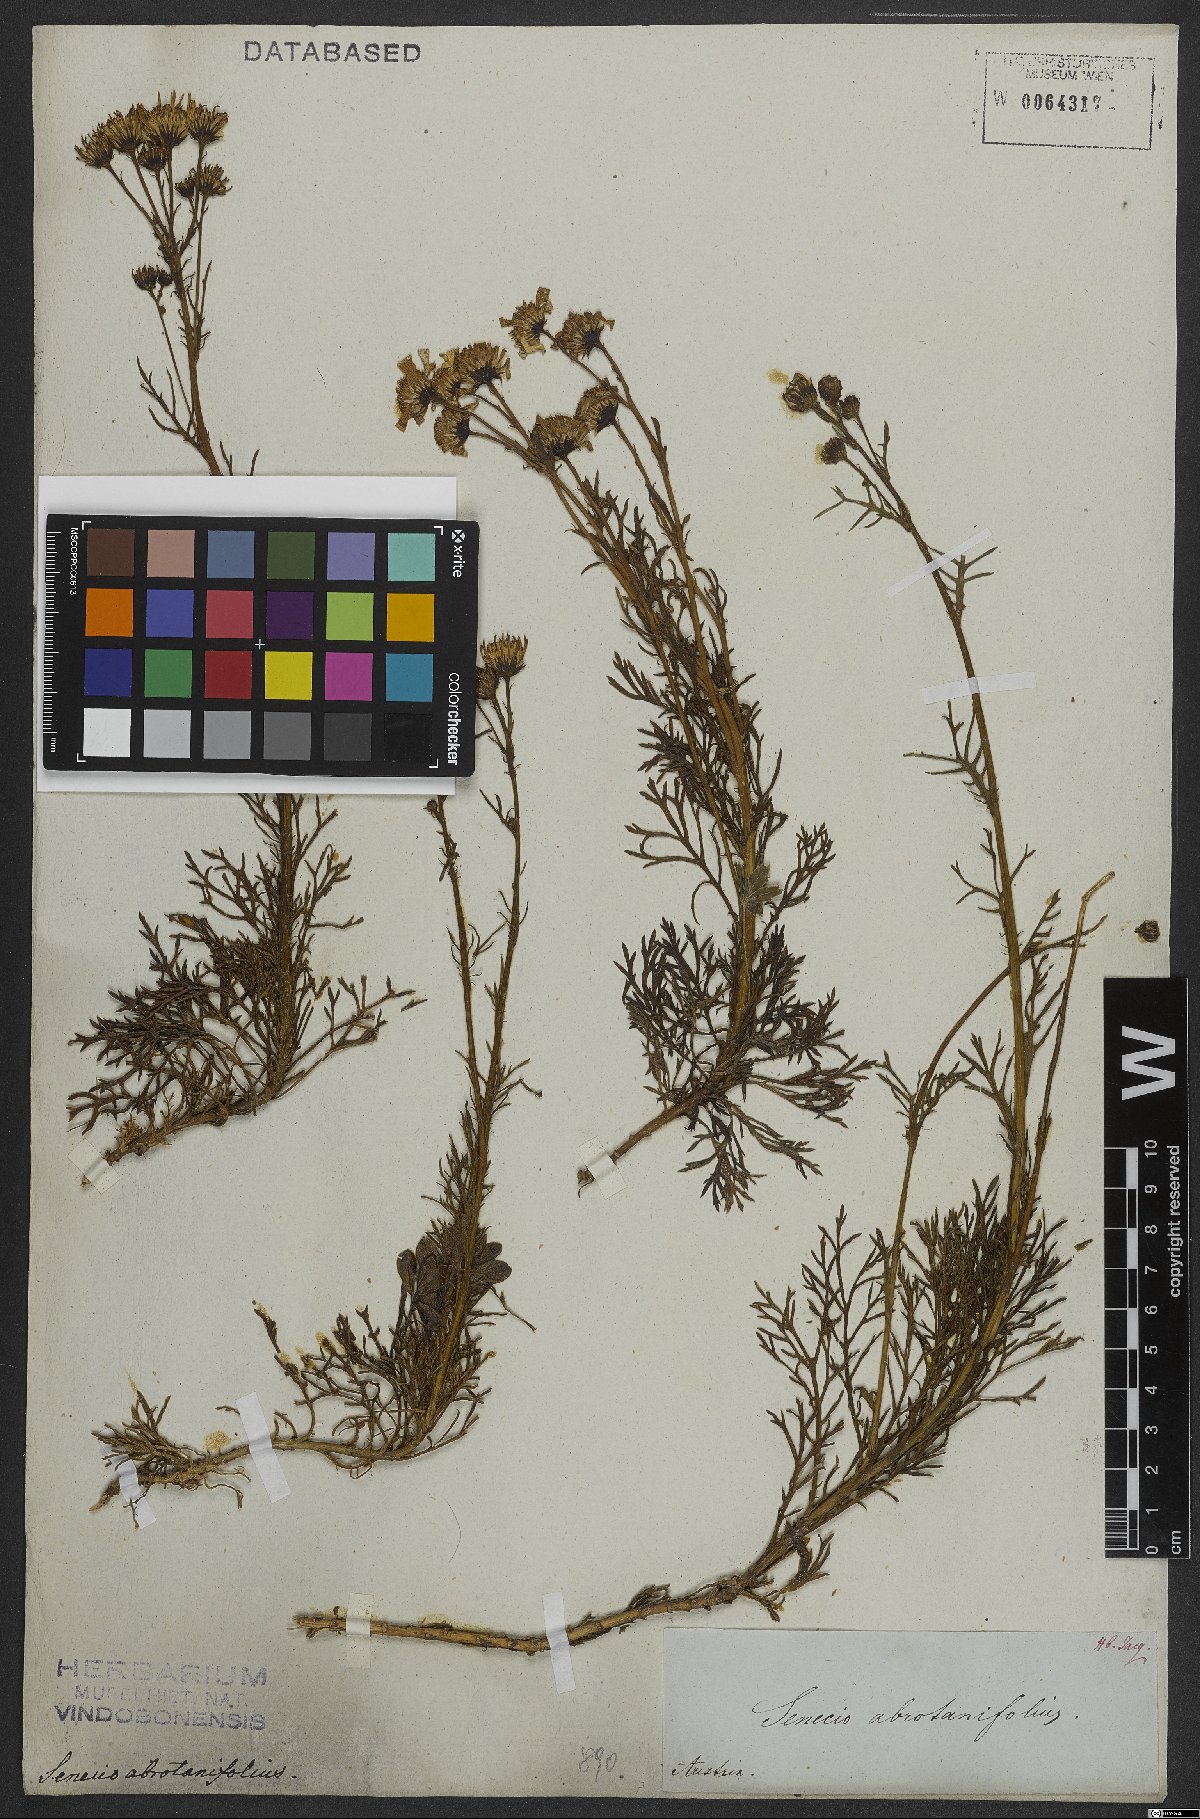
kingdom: Plantae
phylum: Tracheophyta
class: Magnoliopsida
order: Asterales
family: Asteraceae
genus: Jacobaea
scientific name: Jacobaea abrotanifolia
